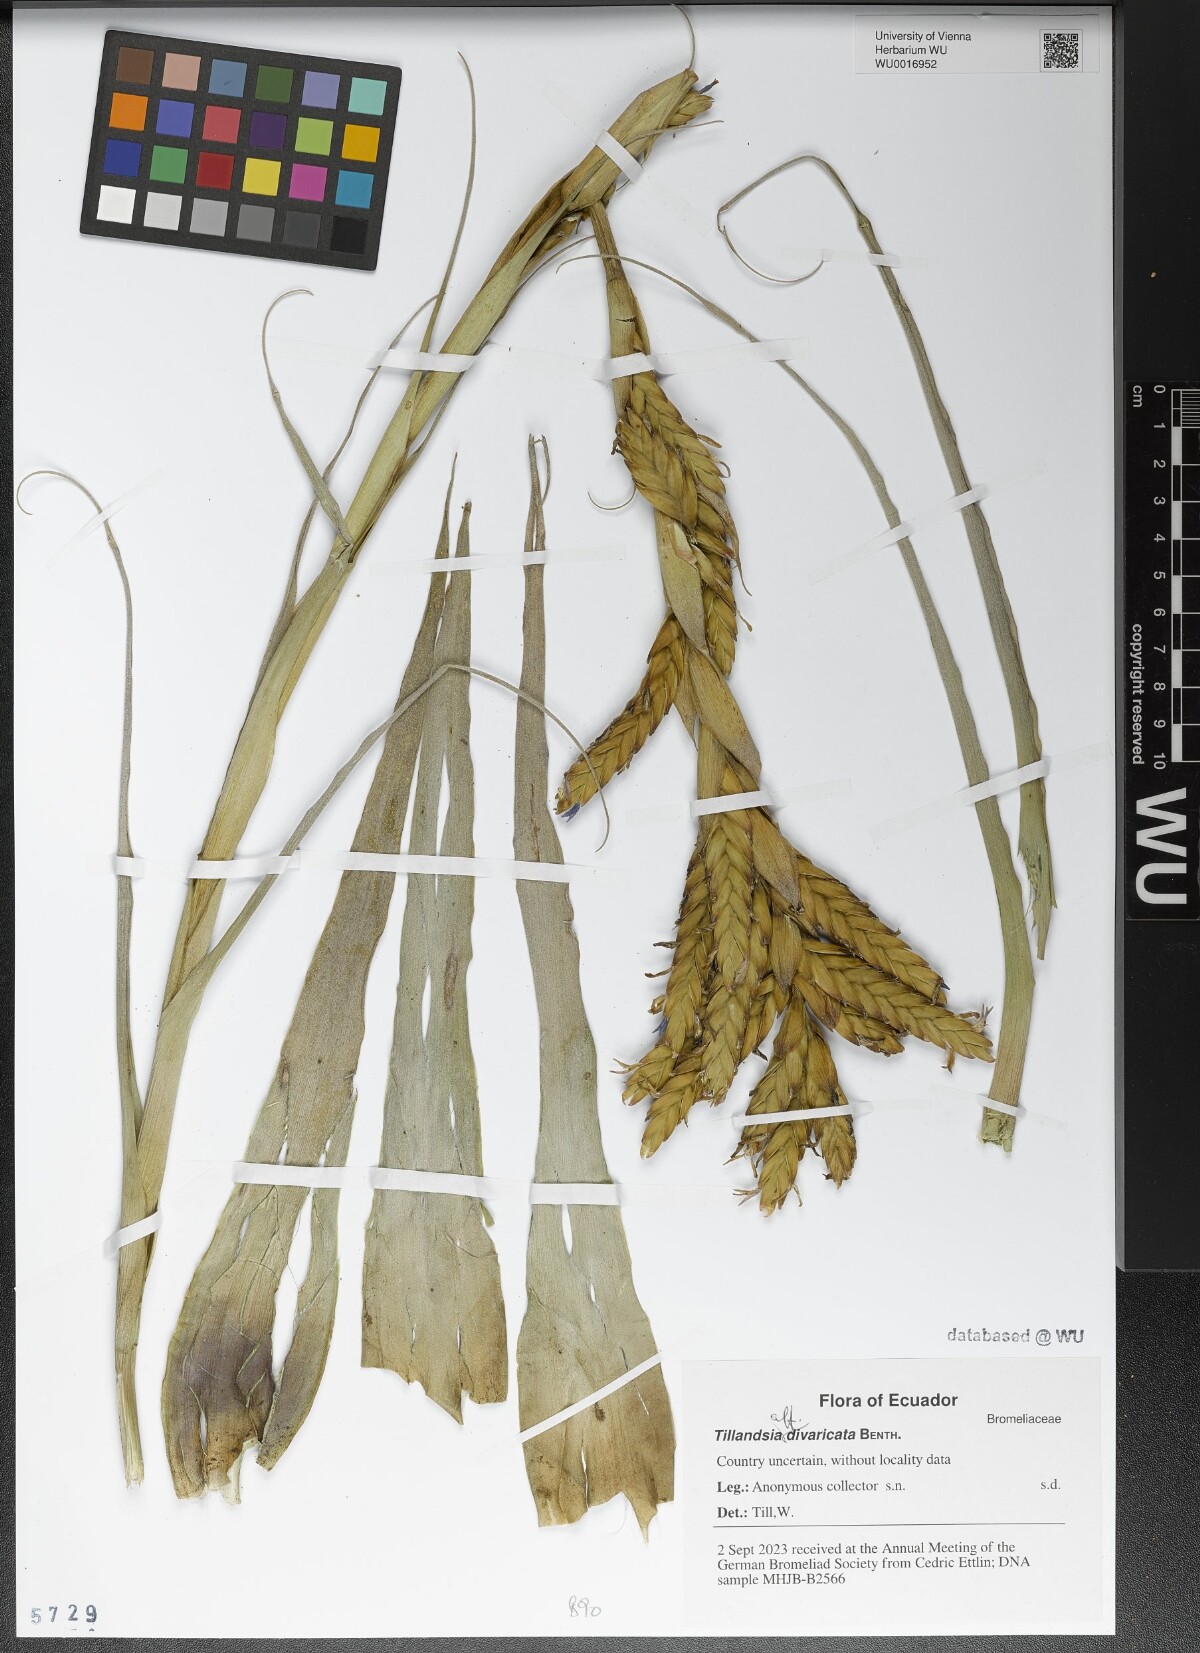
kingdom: Plantae
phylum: Tracheophyta
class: Liliopsida
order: Poales
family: Bromeliaceae
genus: Tillandsia
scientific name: Tillandsia latifolia
